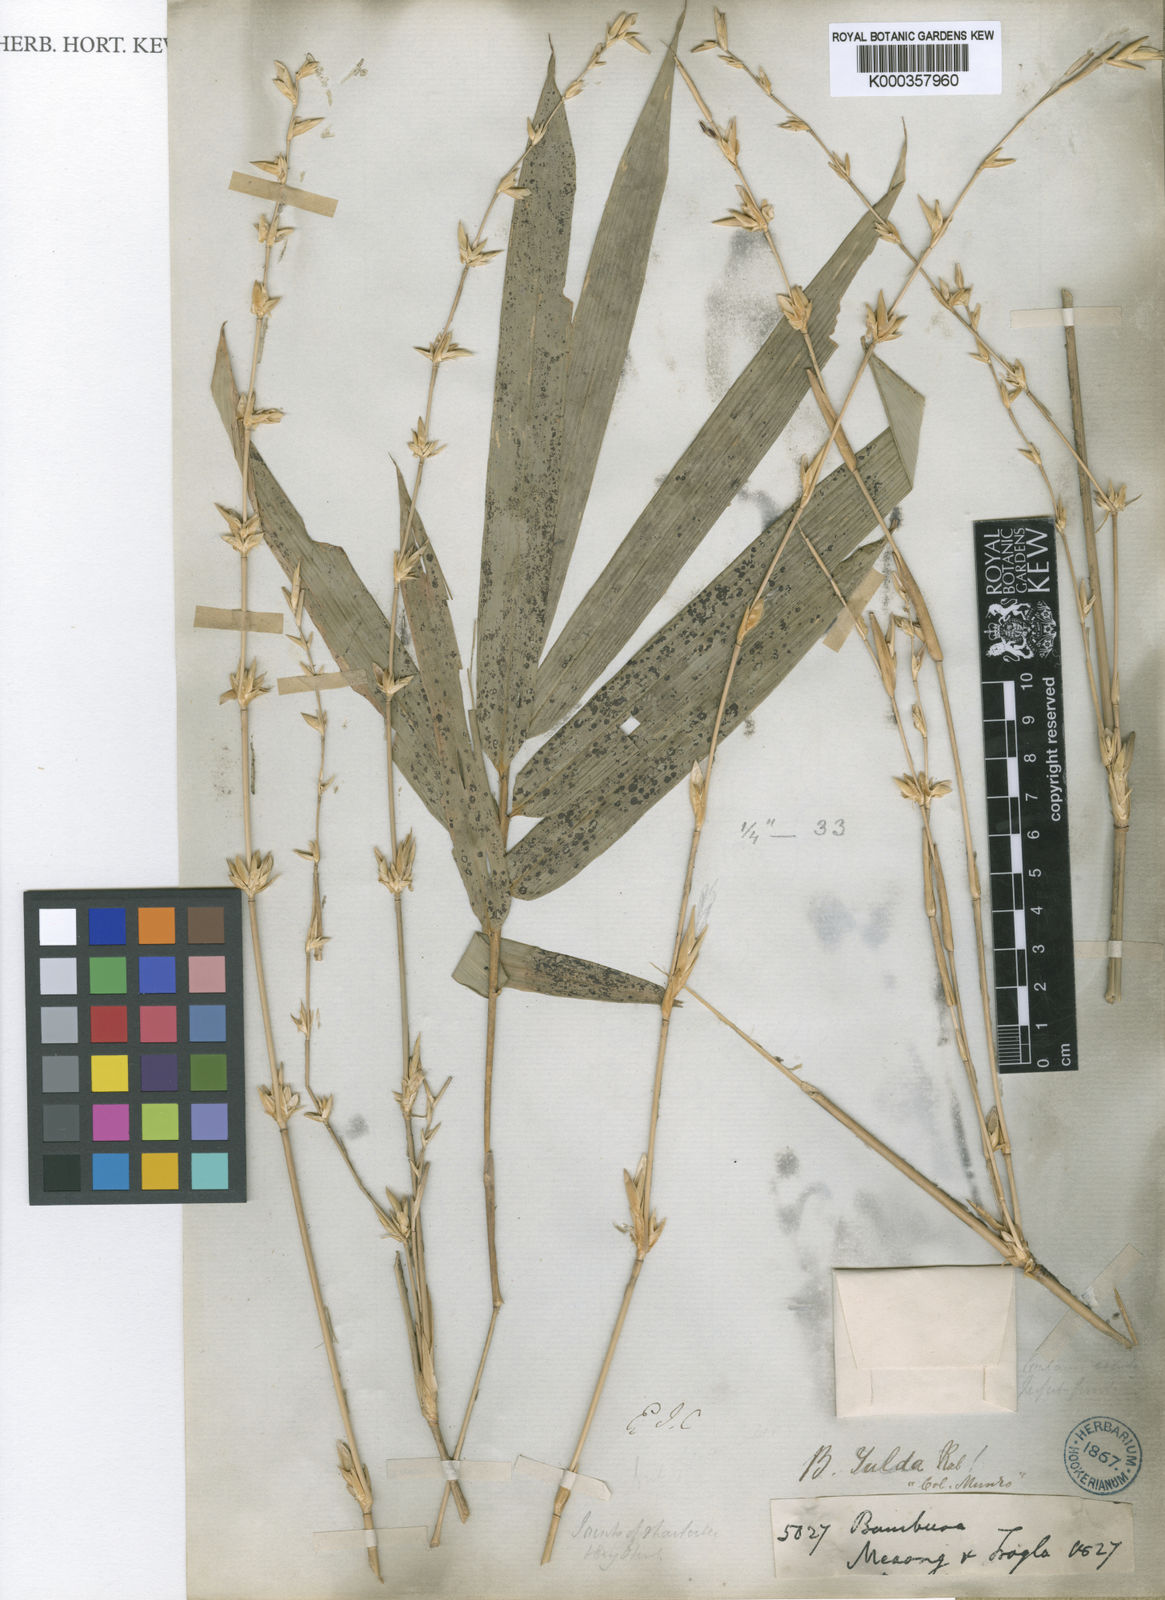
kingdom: Plantae
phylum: Tracheophyta
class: Liliopsida
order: Poales
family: Poaceae
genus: Bambusa
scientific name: Bambusa tulda
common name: Bengal bamboo
